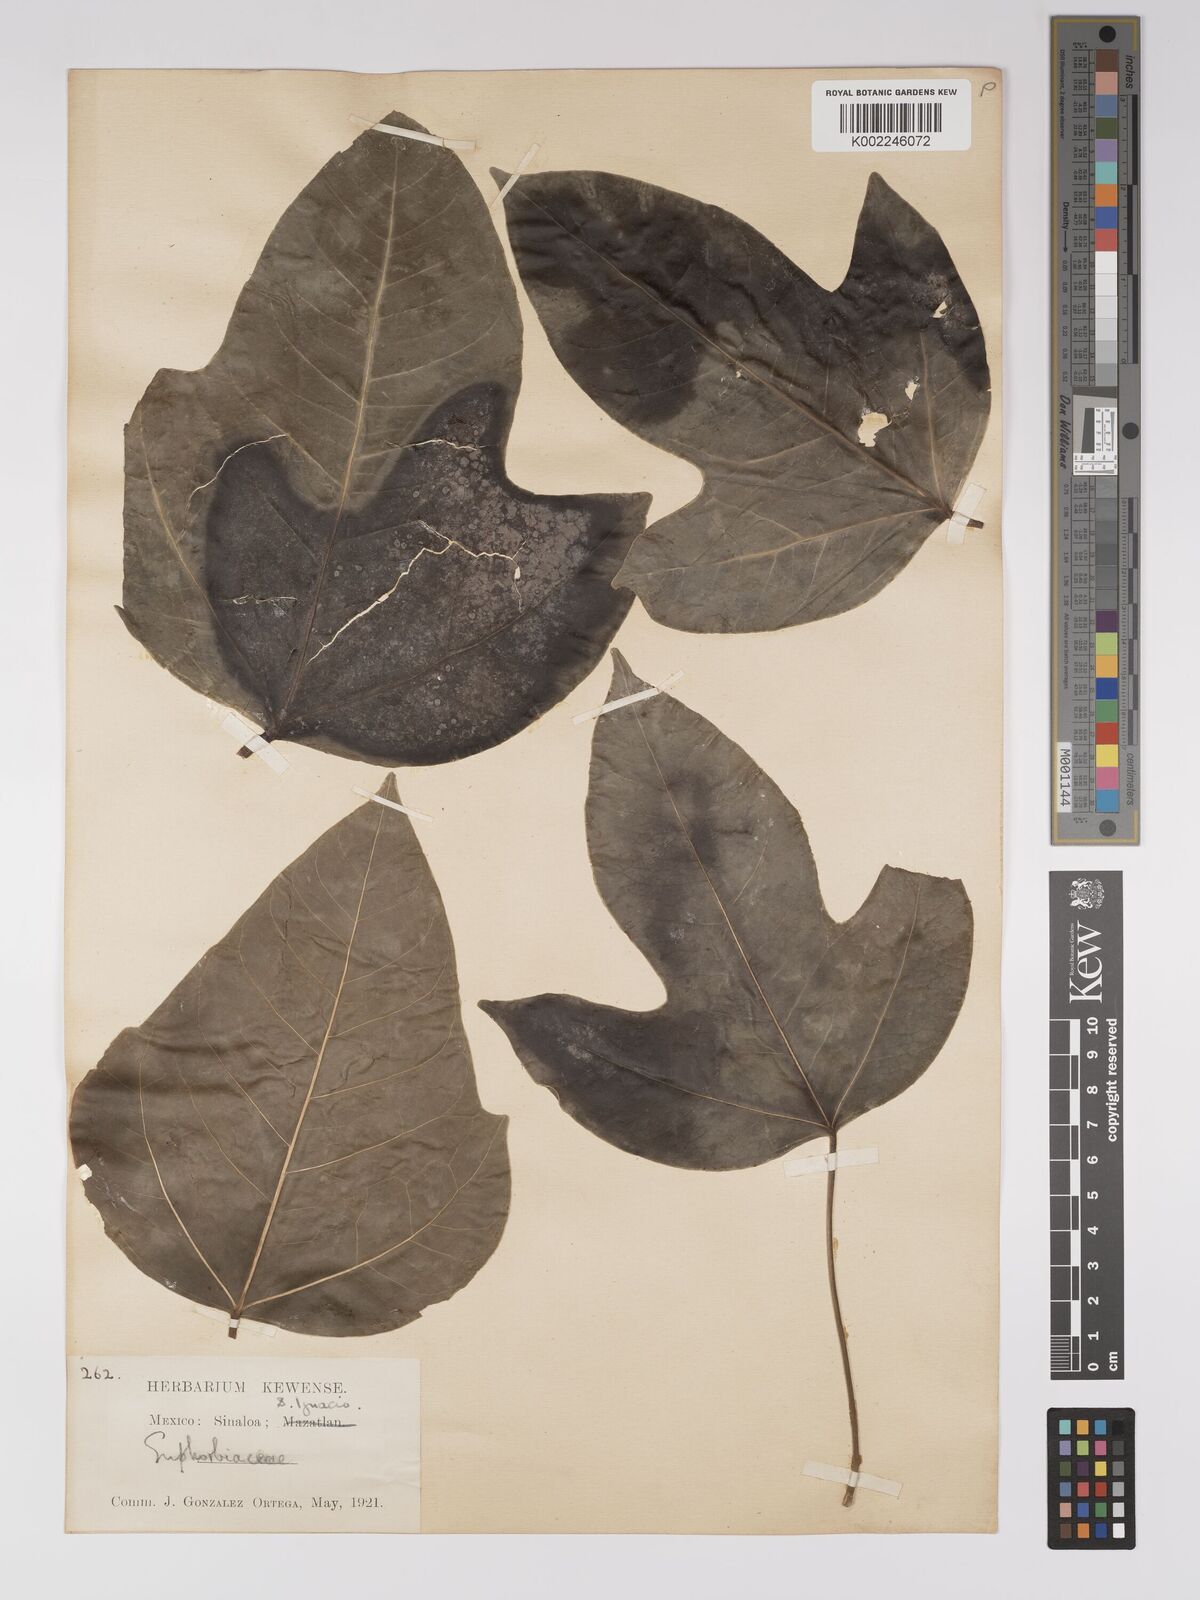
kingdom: Plantae
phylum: Tracheophyta
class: Magnoliopsida
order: Malpighiales
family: Euphorbiaceae
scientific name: Euphorbiaceae
